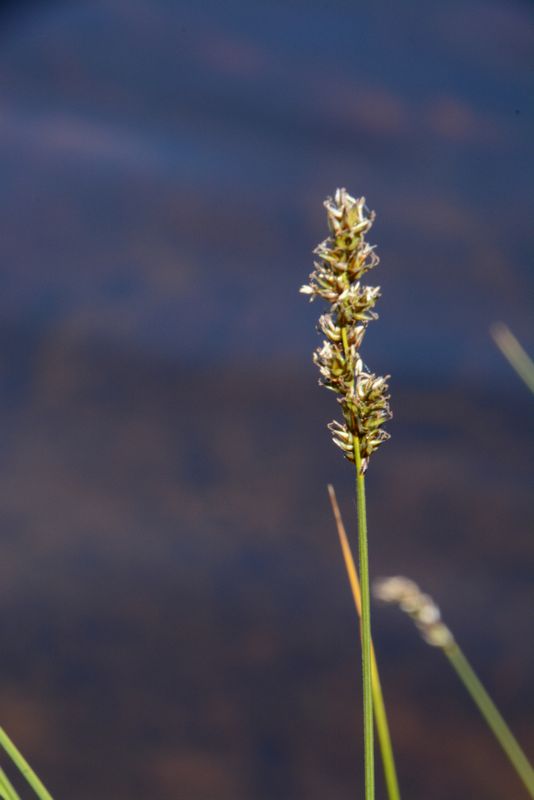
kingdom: Plantae
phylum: Tracheophyta
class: Liliopsida
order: Poales
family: Cyperaceae
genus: Carex
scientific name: Carex diandra
